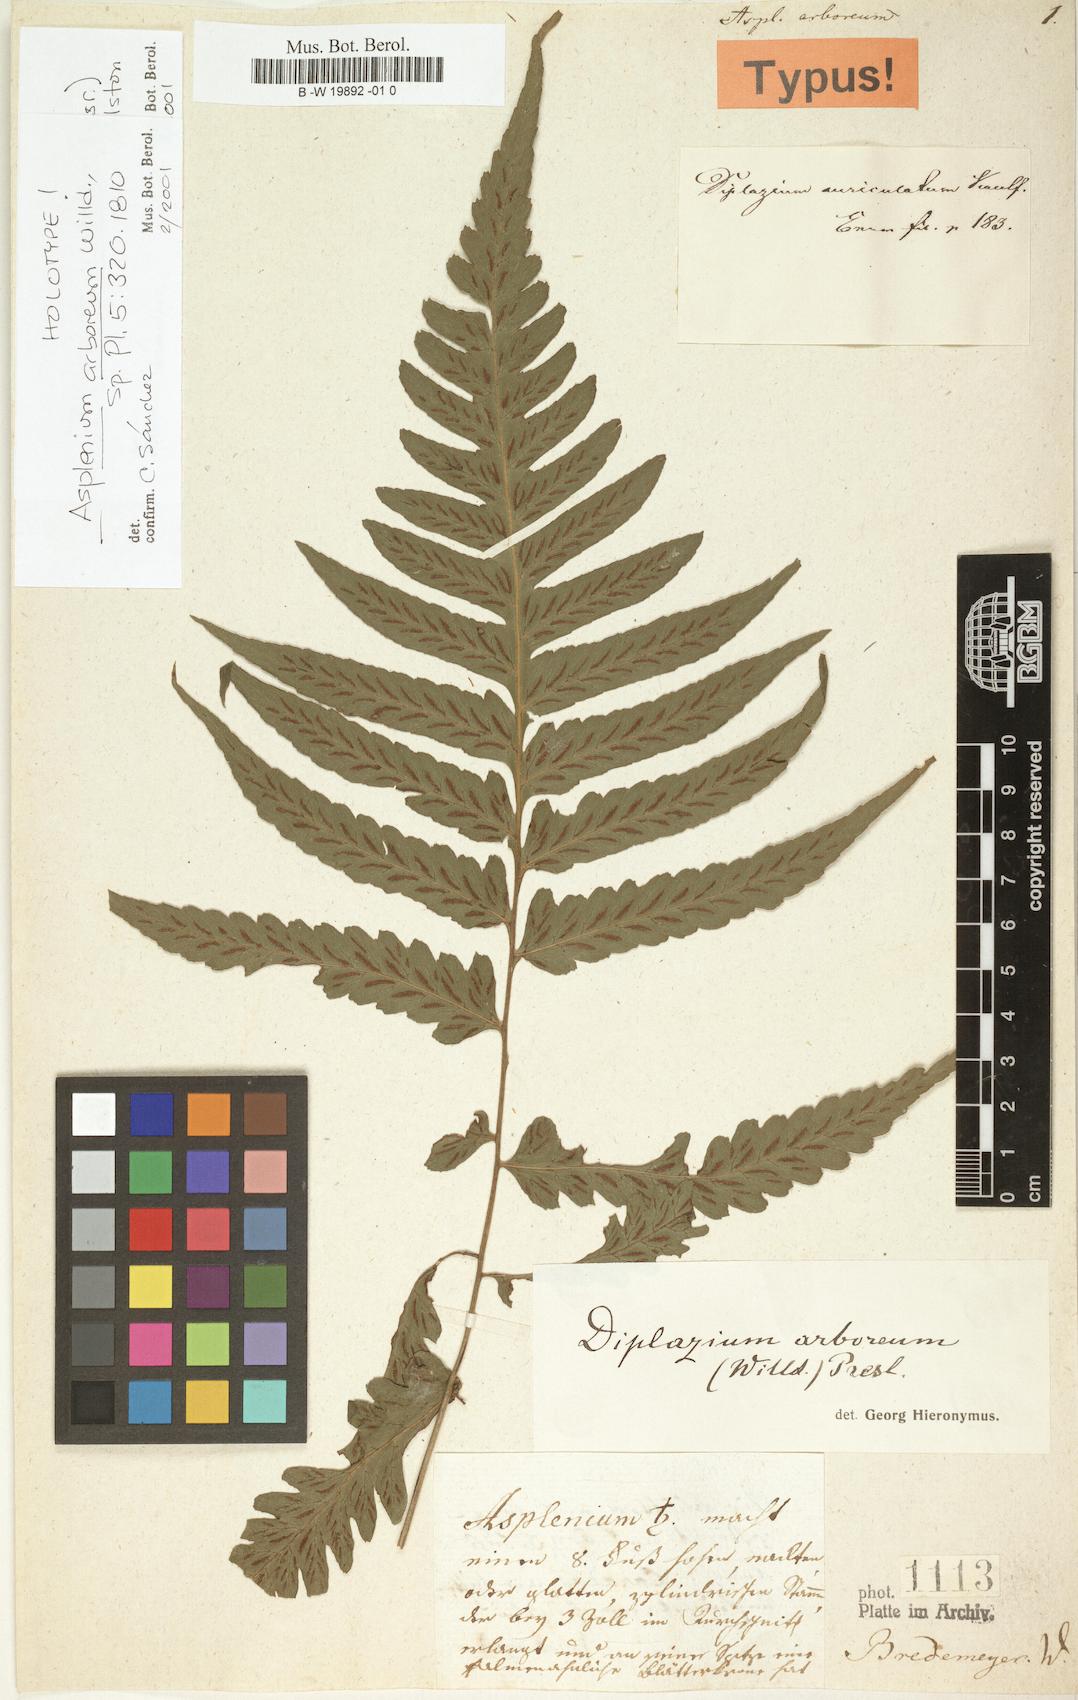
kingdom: Plantae
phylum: Tracheophyta
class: Polypodiopsida
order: Polypodiales
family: Athyriaceae
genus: Diplazium
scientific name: Diplazium cristatum
